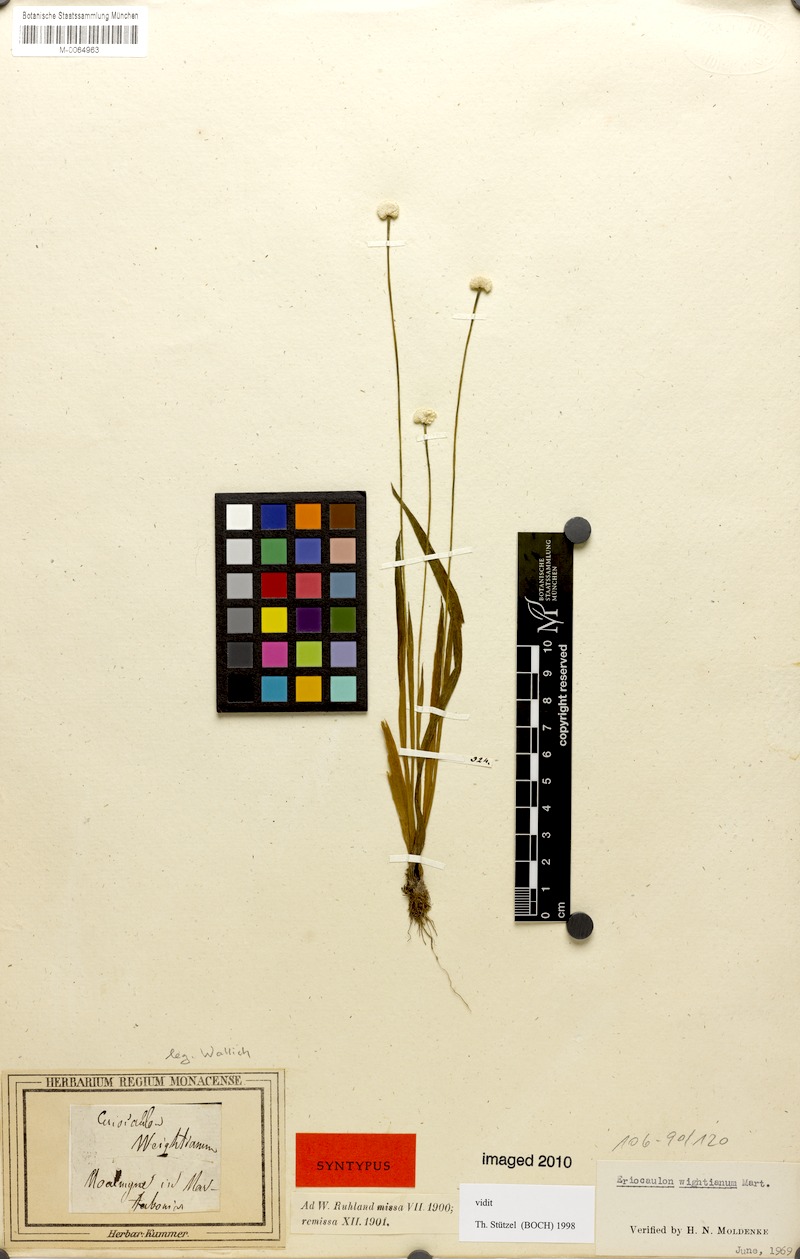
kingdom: Plantae
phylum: Tracheophyta
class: Liliopsida
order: Poales
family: Eriocaulaceae
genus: Eriocaulon
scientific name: Eriocaulon wightianum
